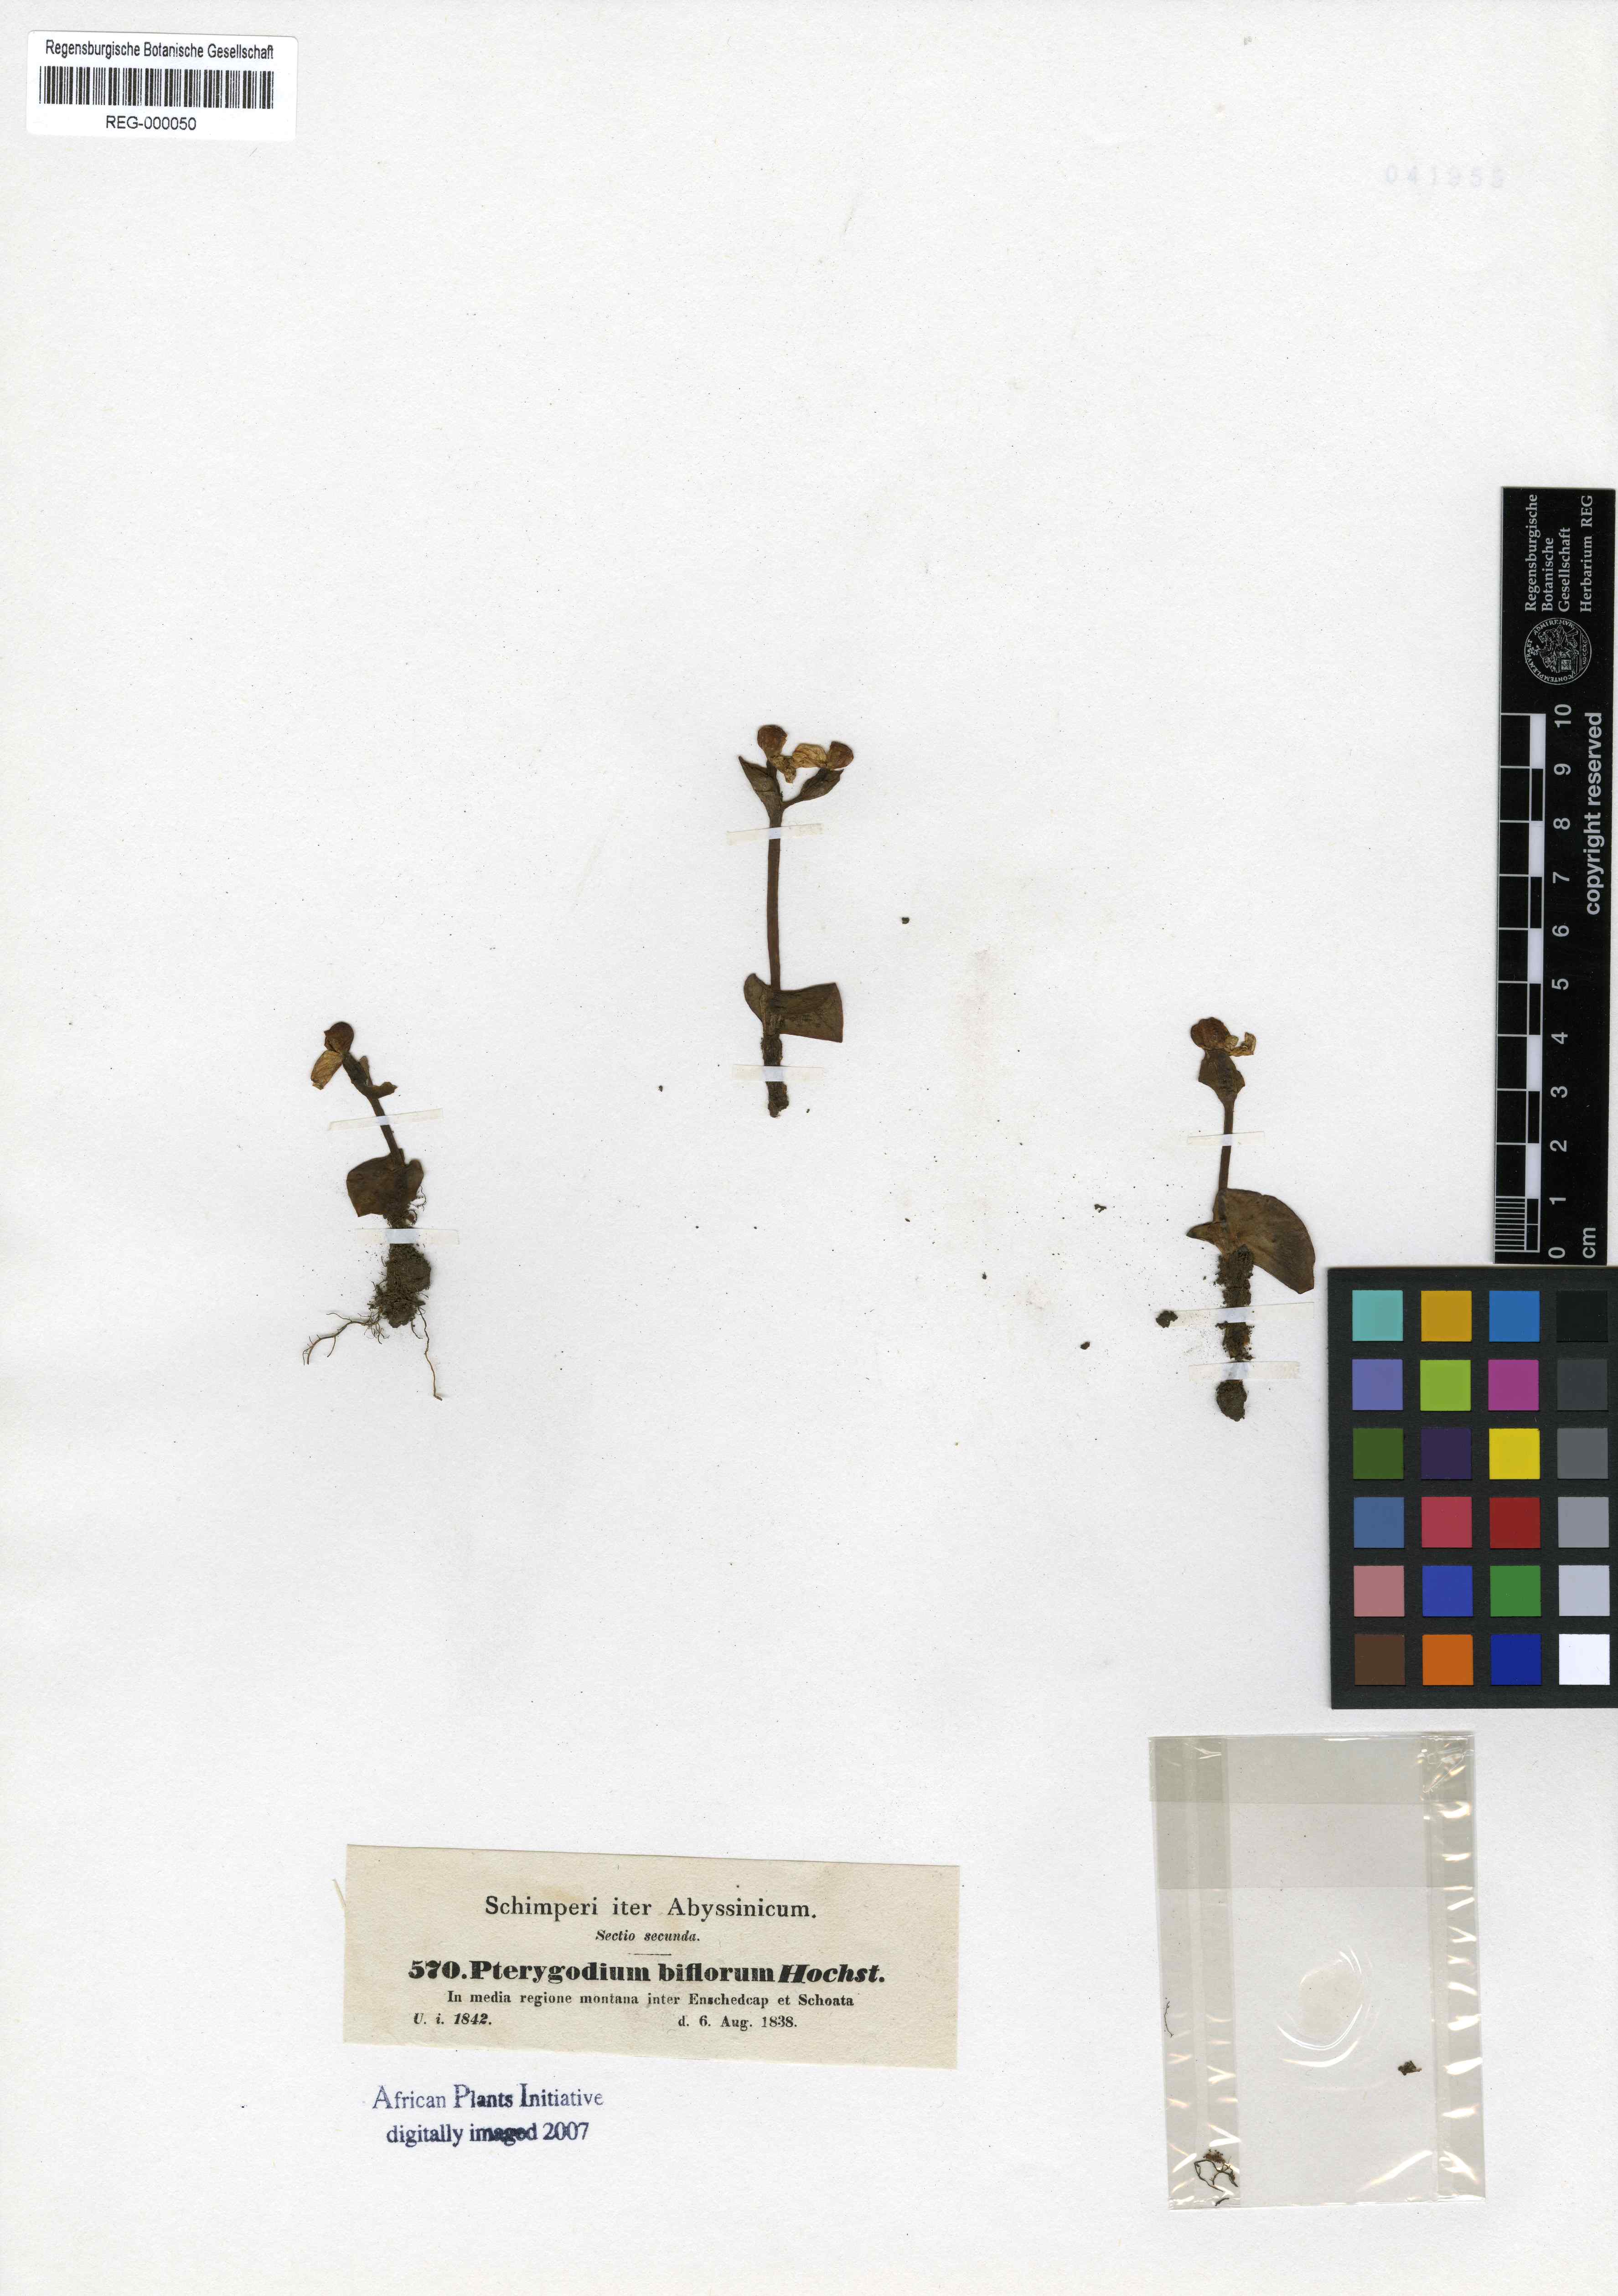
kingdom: Plantae
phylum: Tracheophyta
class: Liliopsida
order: Asparagales
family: Orchidaceae
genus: Disperis
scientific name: Disperis crassicaulis
